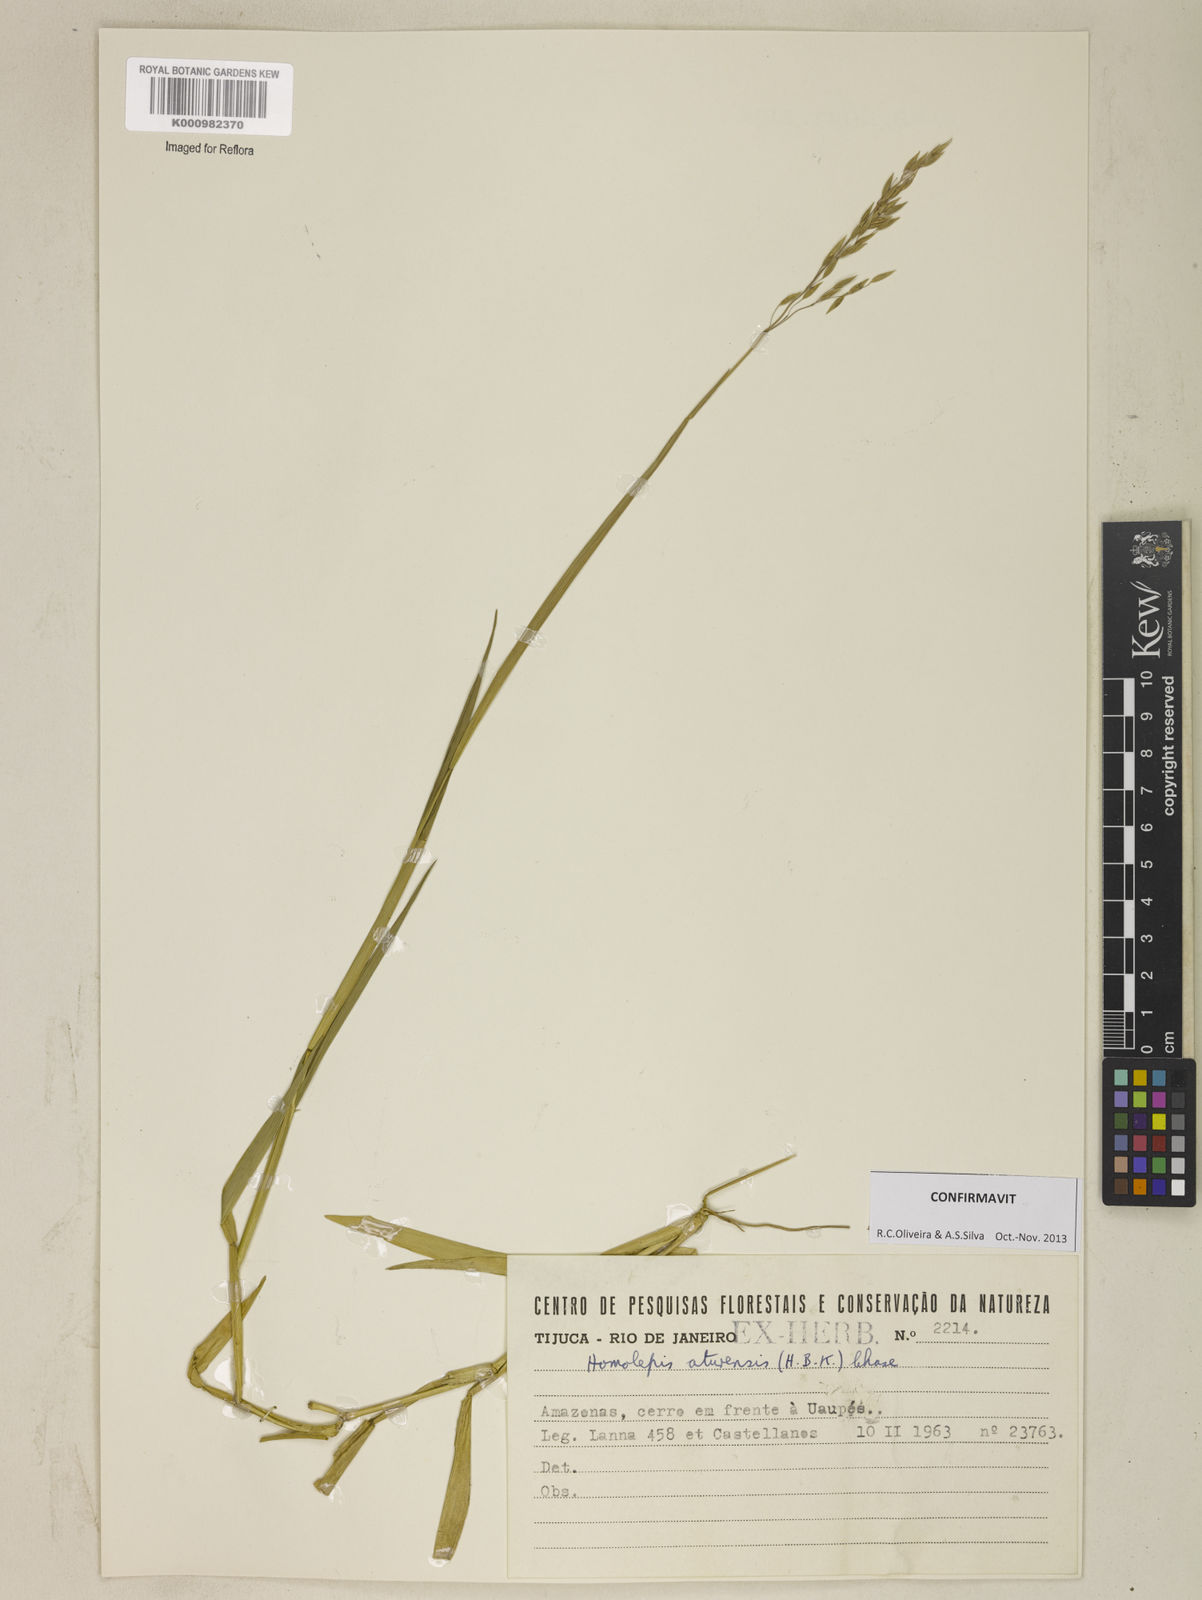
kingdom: Plantae
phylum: Tracheophyta
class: Liliopsida
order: Poales
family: Poaceae
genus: Homolepis
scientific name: Homolepis aturensis
